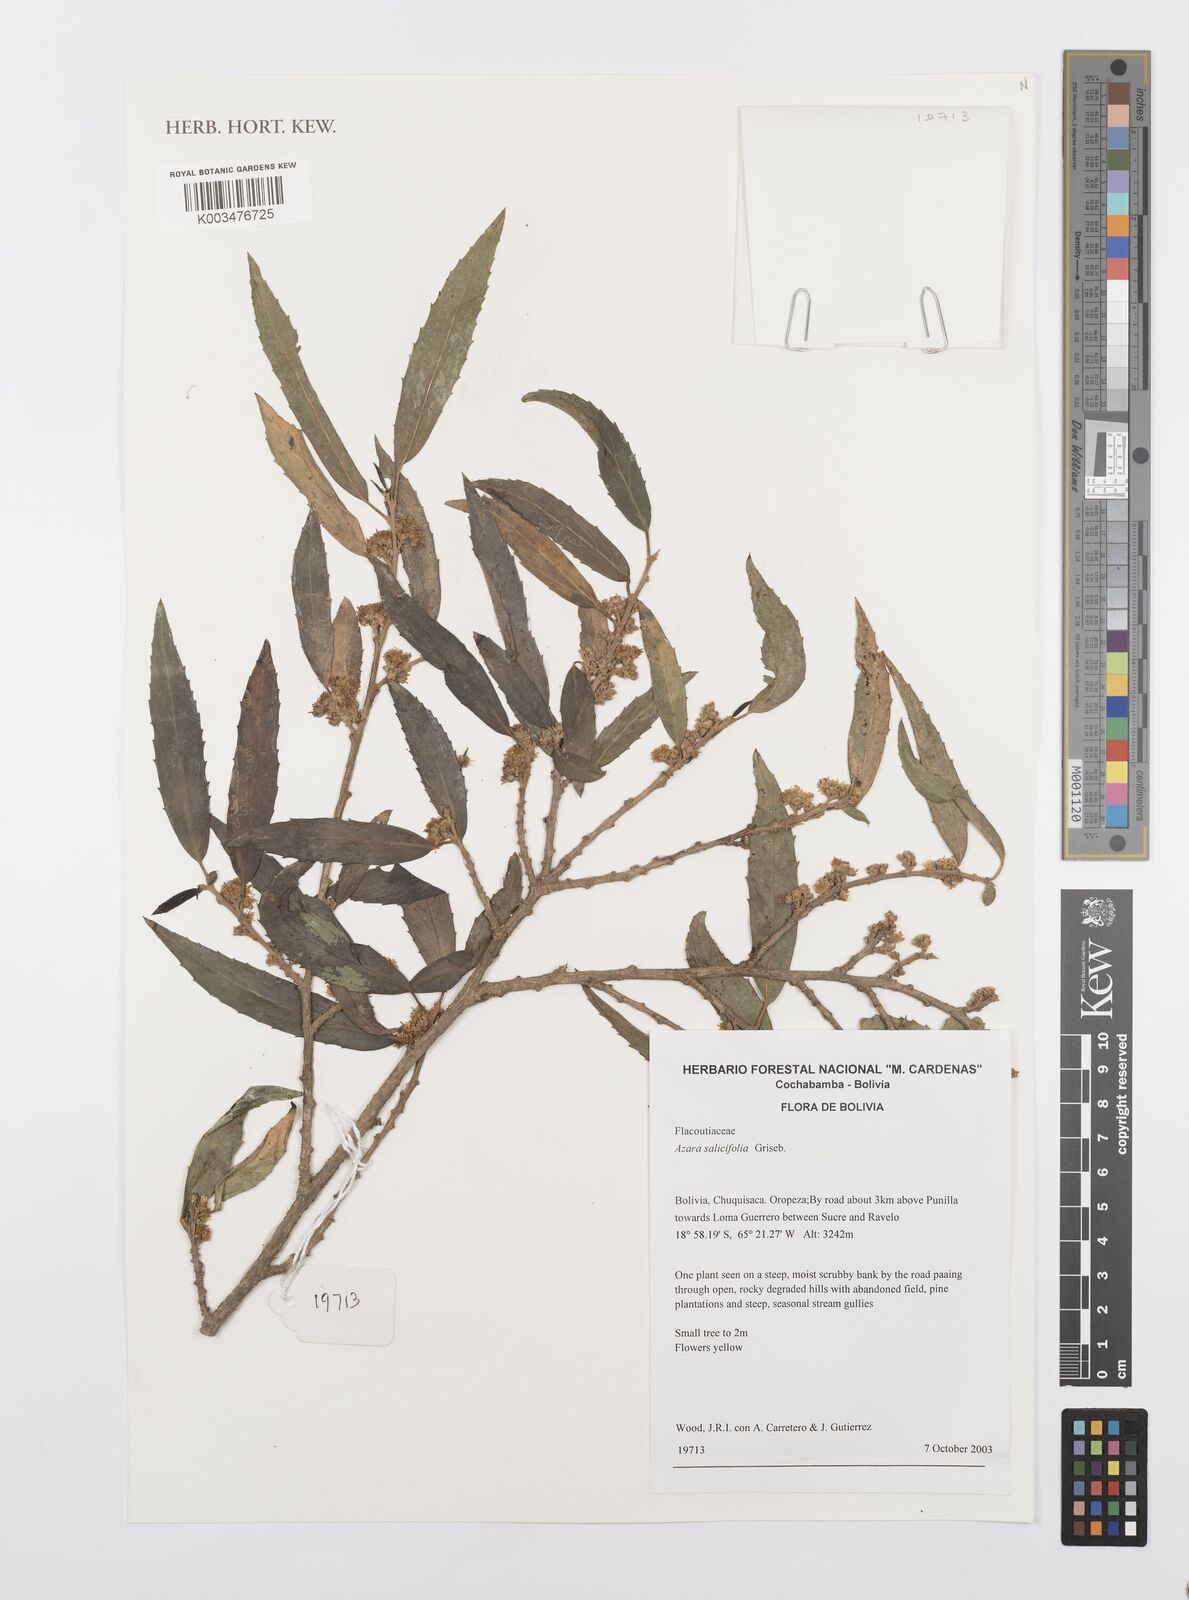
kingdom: Plantae
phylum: Tracheophyta
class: Magnoliopsida
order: Malpighiales
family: Salicaceae
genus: Azara
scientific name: Azara salicifolia
